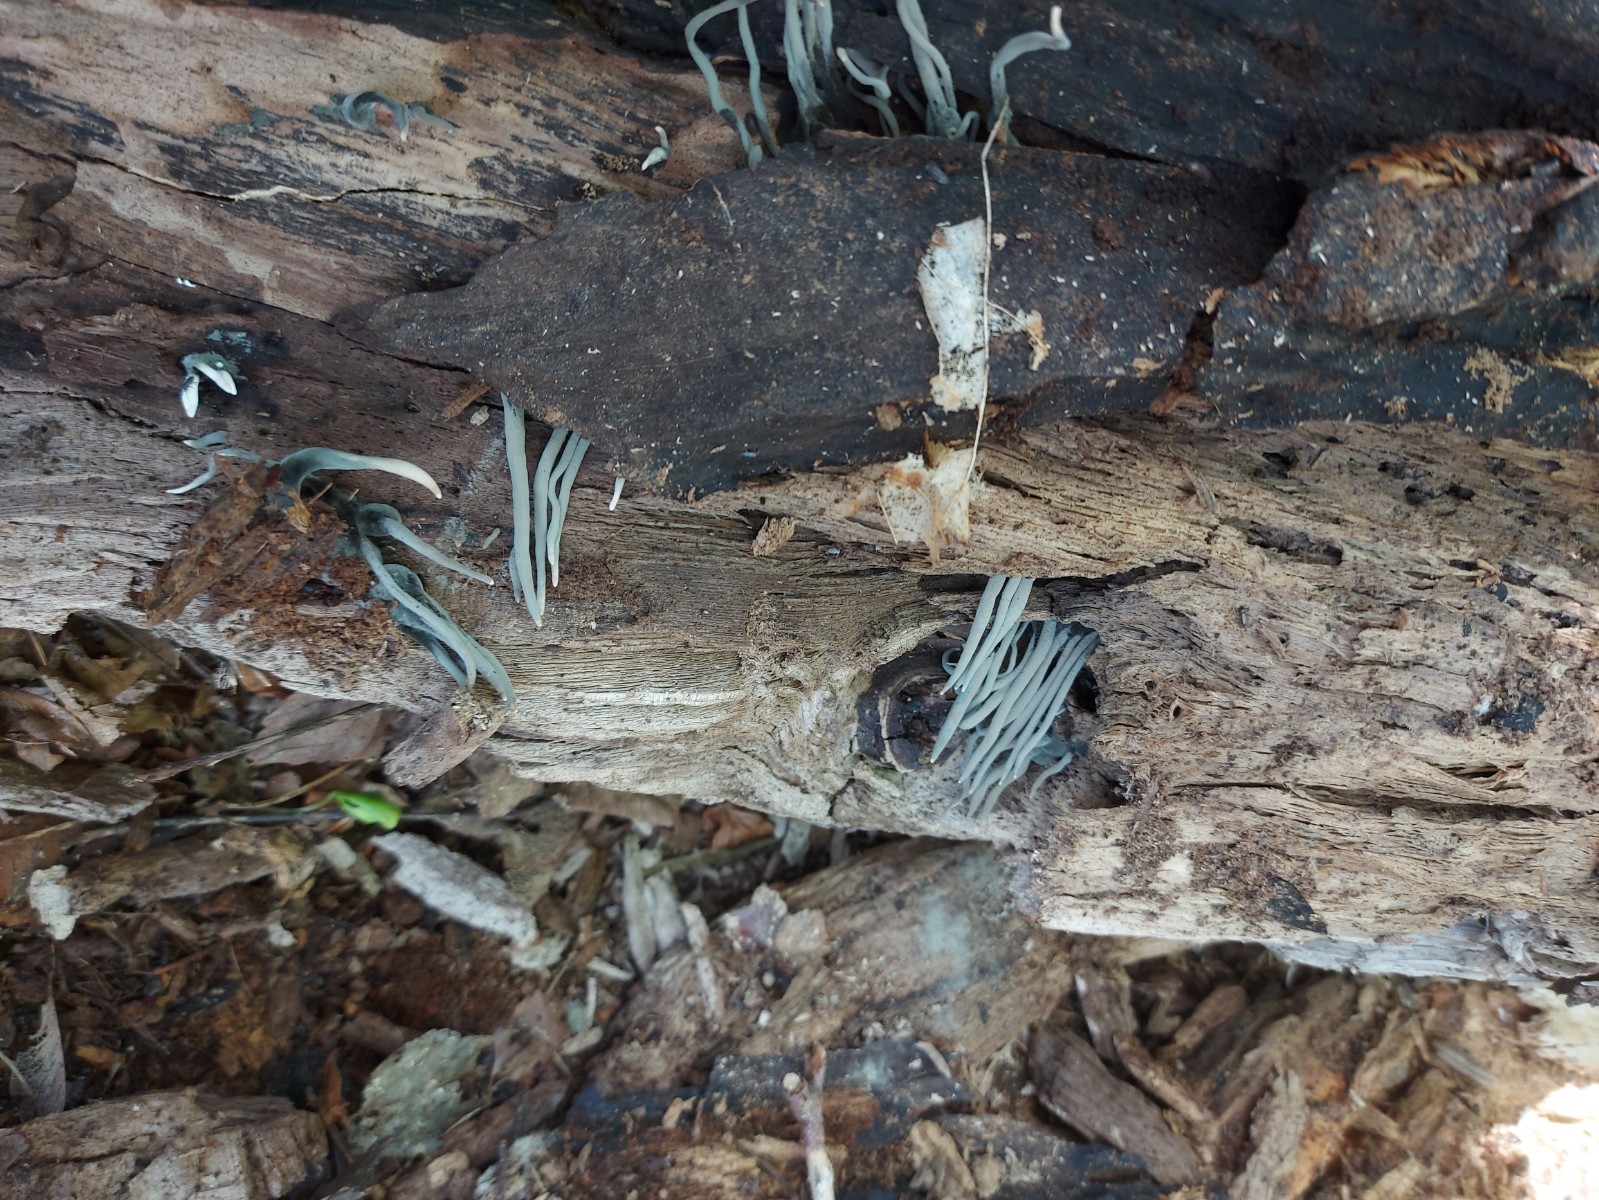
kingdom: Fungi
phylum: Ascomycota
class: Sordariomycetes
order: Xylariales
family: Xylariaceae
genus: Xylaria
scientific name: Xylaria longipes
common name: slank stødsvamp
